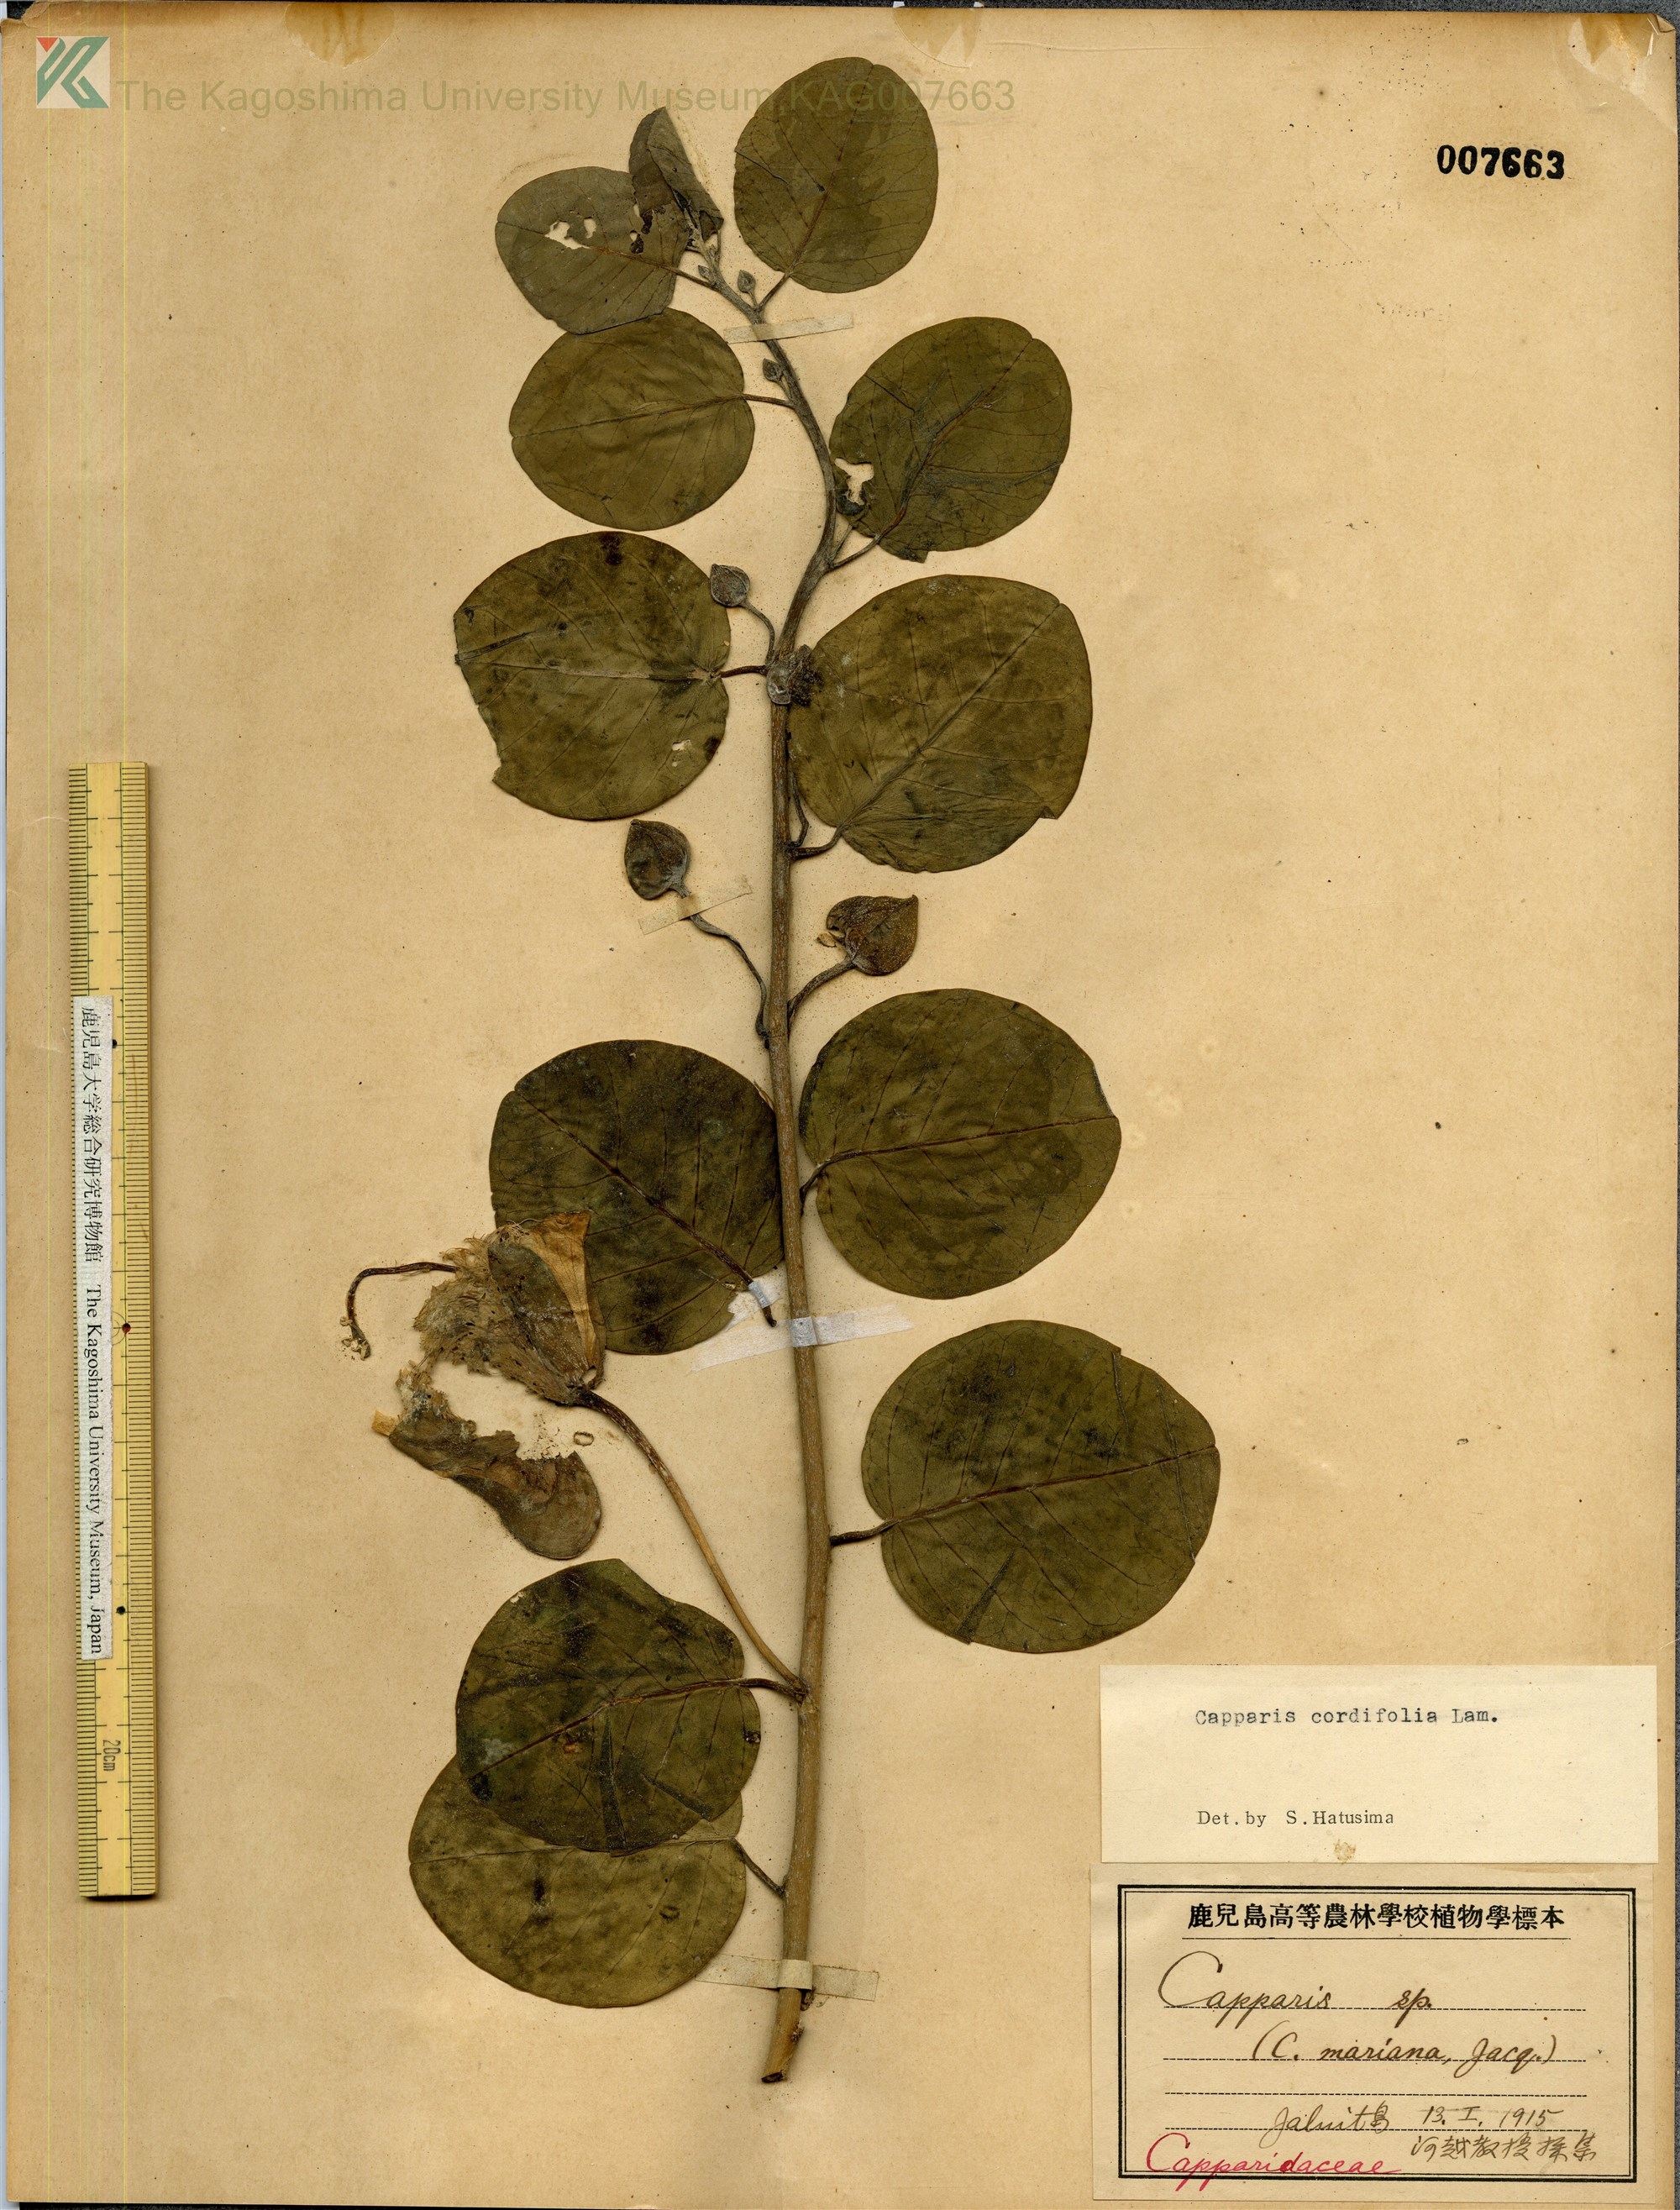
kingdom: Plantae
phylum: Tracheophyta
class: Magnoliopsida
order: Brassicales
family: Capparaceae
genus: Capparis
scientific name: Capparis spinosa
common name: Caper
